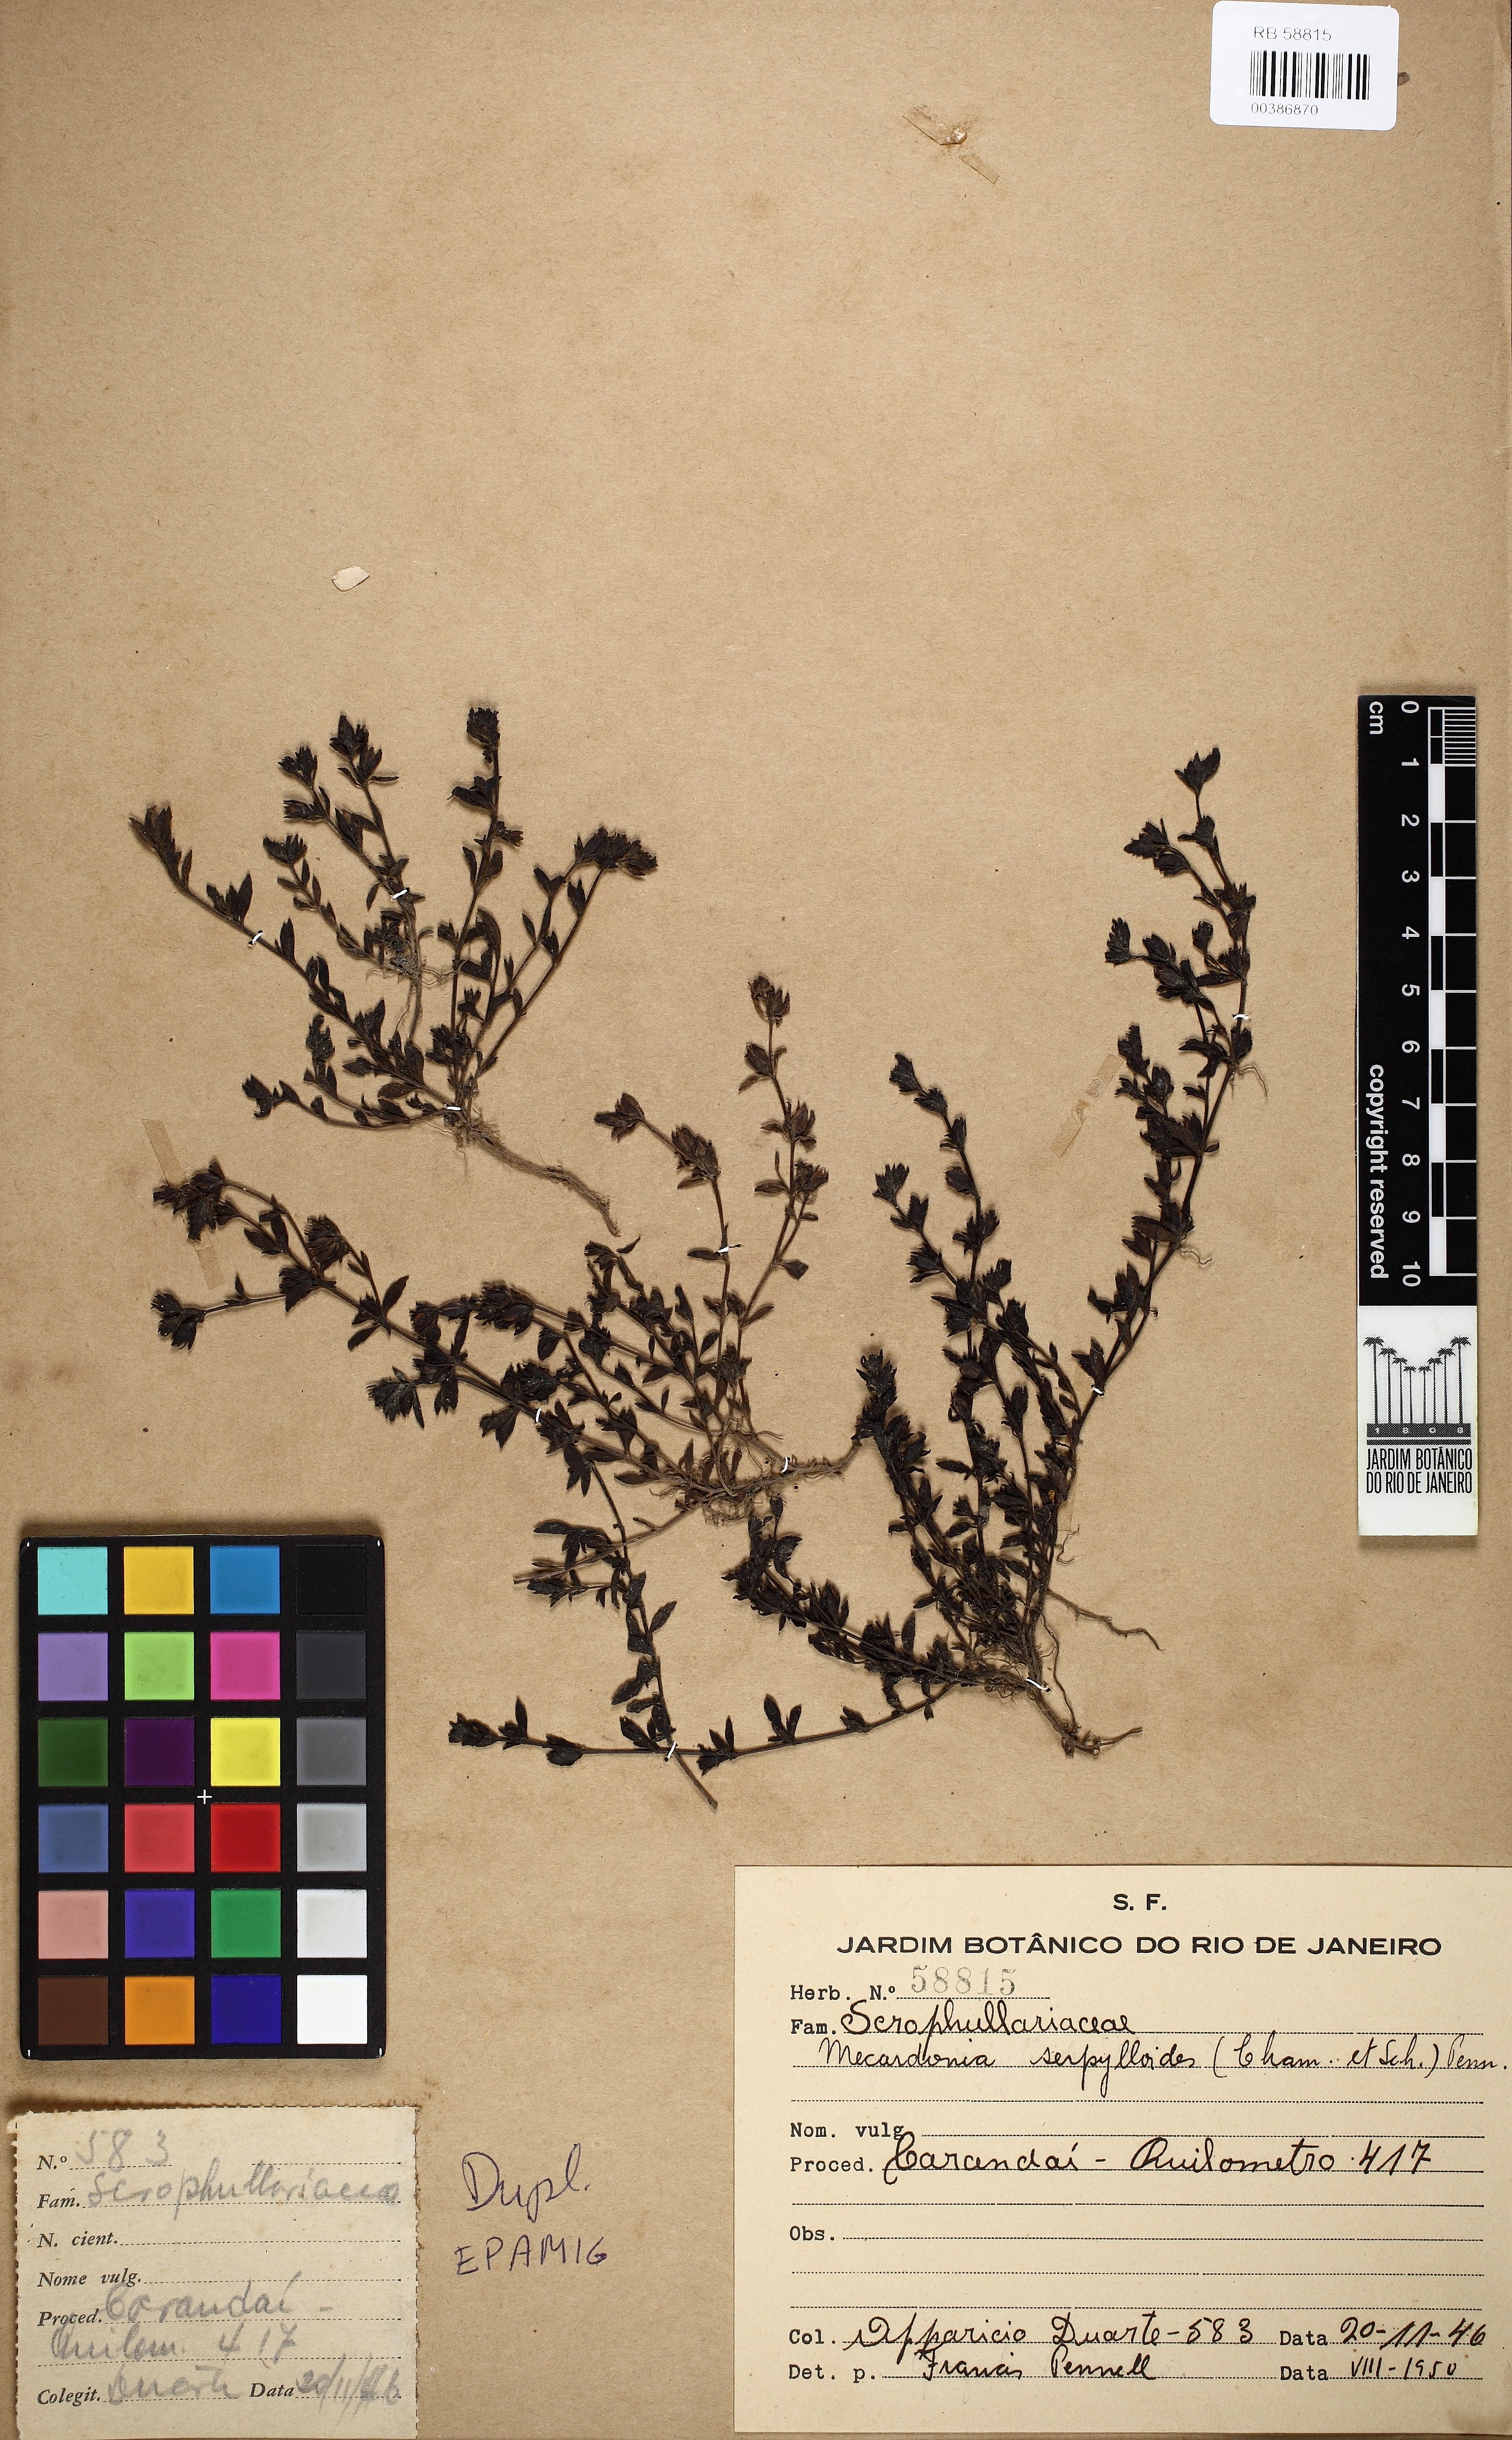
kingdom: Plantae
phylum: Tracheophyta
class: Magnoliopsida
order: Lamiales
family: Plantaginaceae
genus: Mecardonia
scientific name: Mecardonia serpylloides
